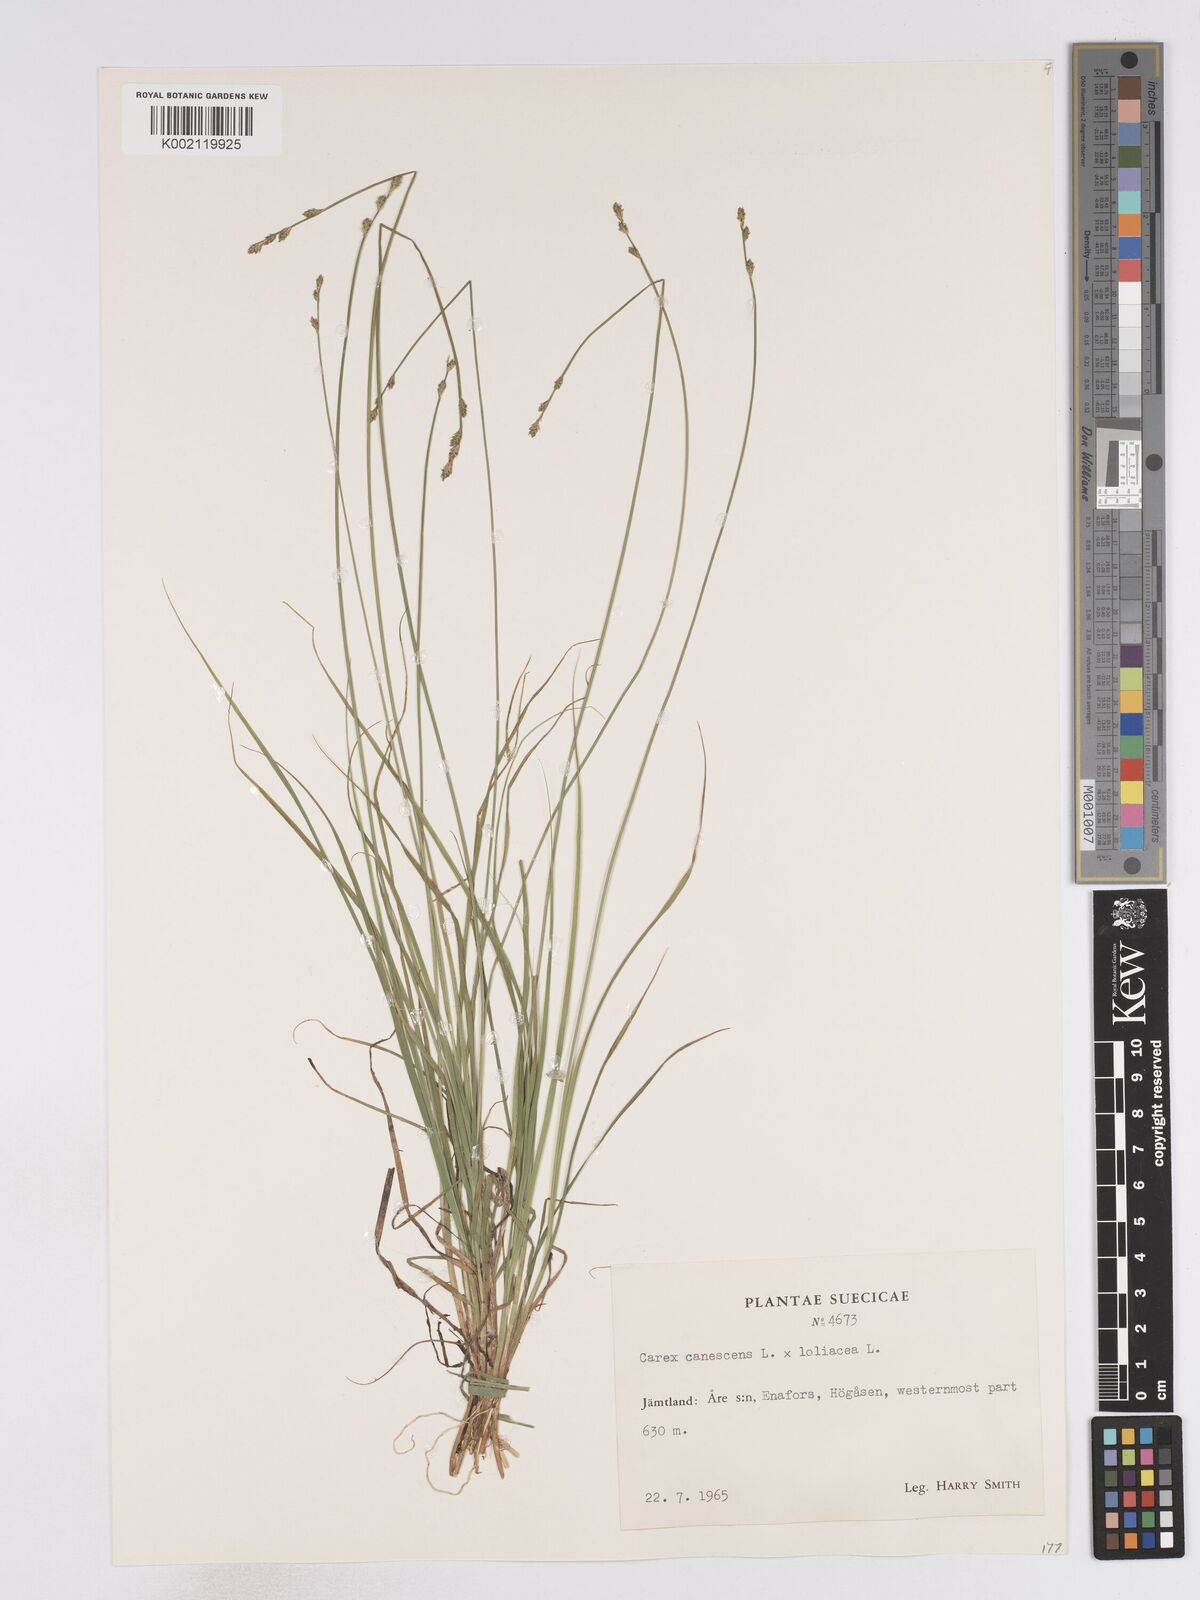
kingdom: Plantae
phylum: Tracheophyta
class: Liliopsida
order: Poales
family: Cyperaceae
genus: Carex
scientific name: Carex curta
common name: White sedge
